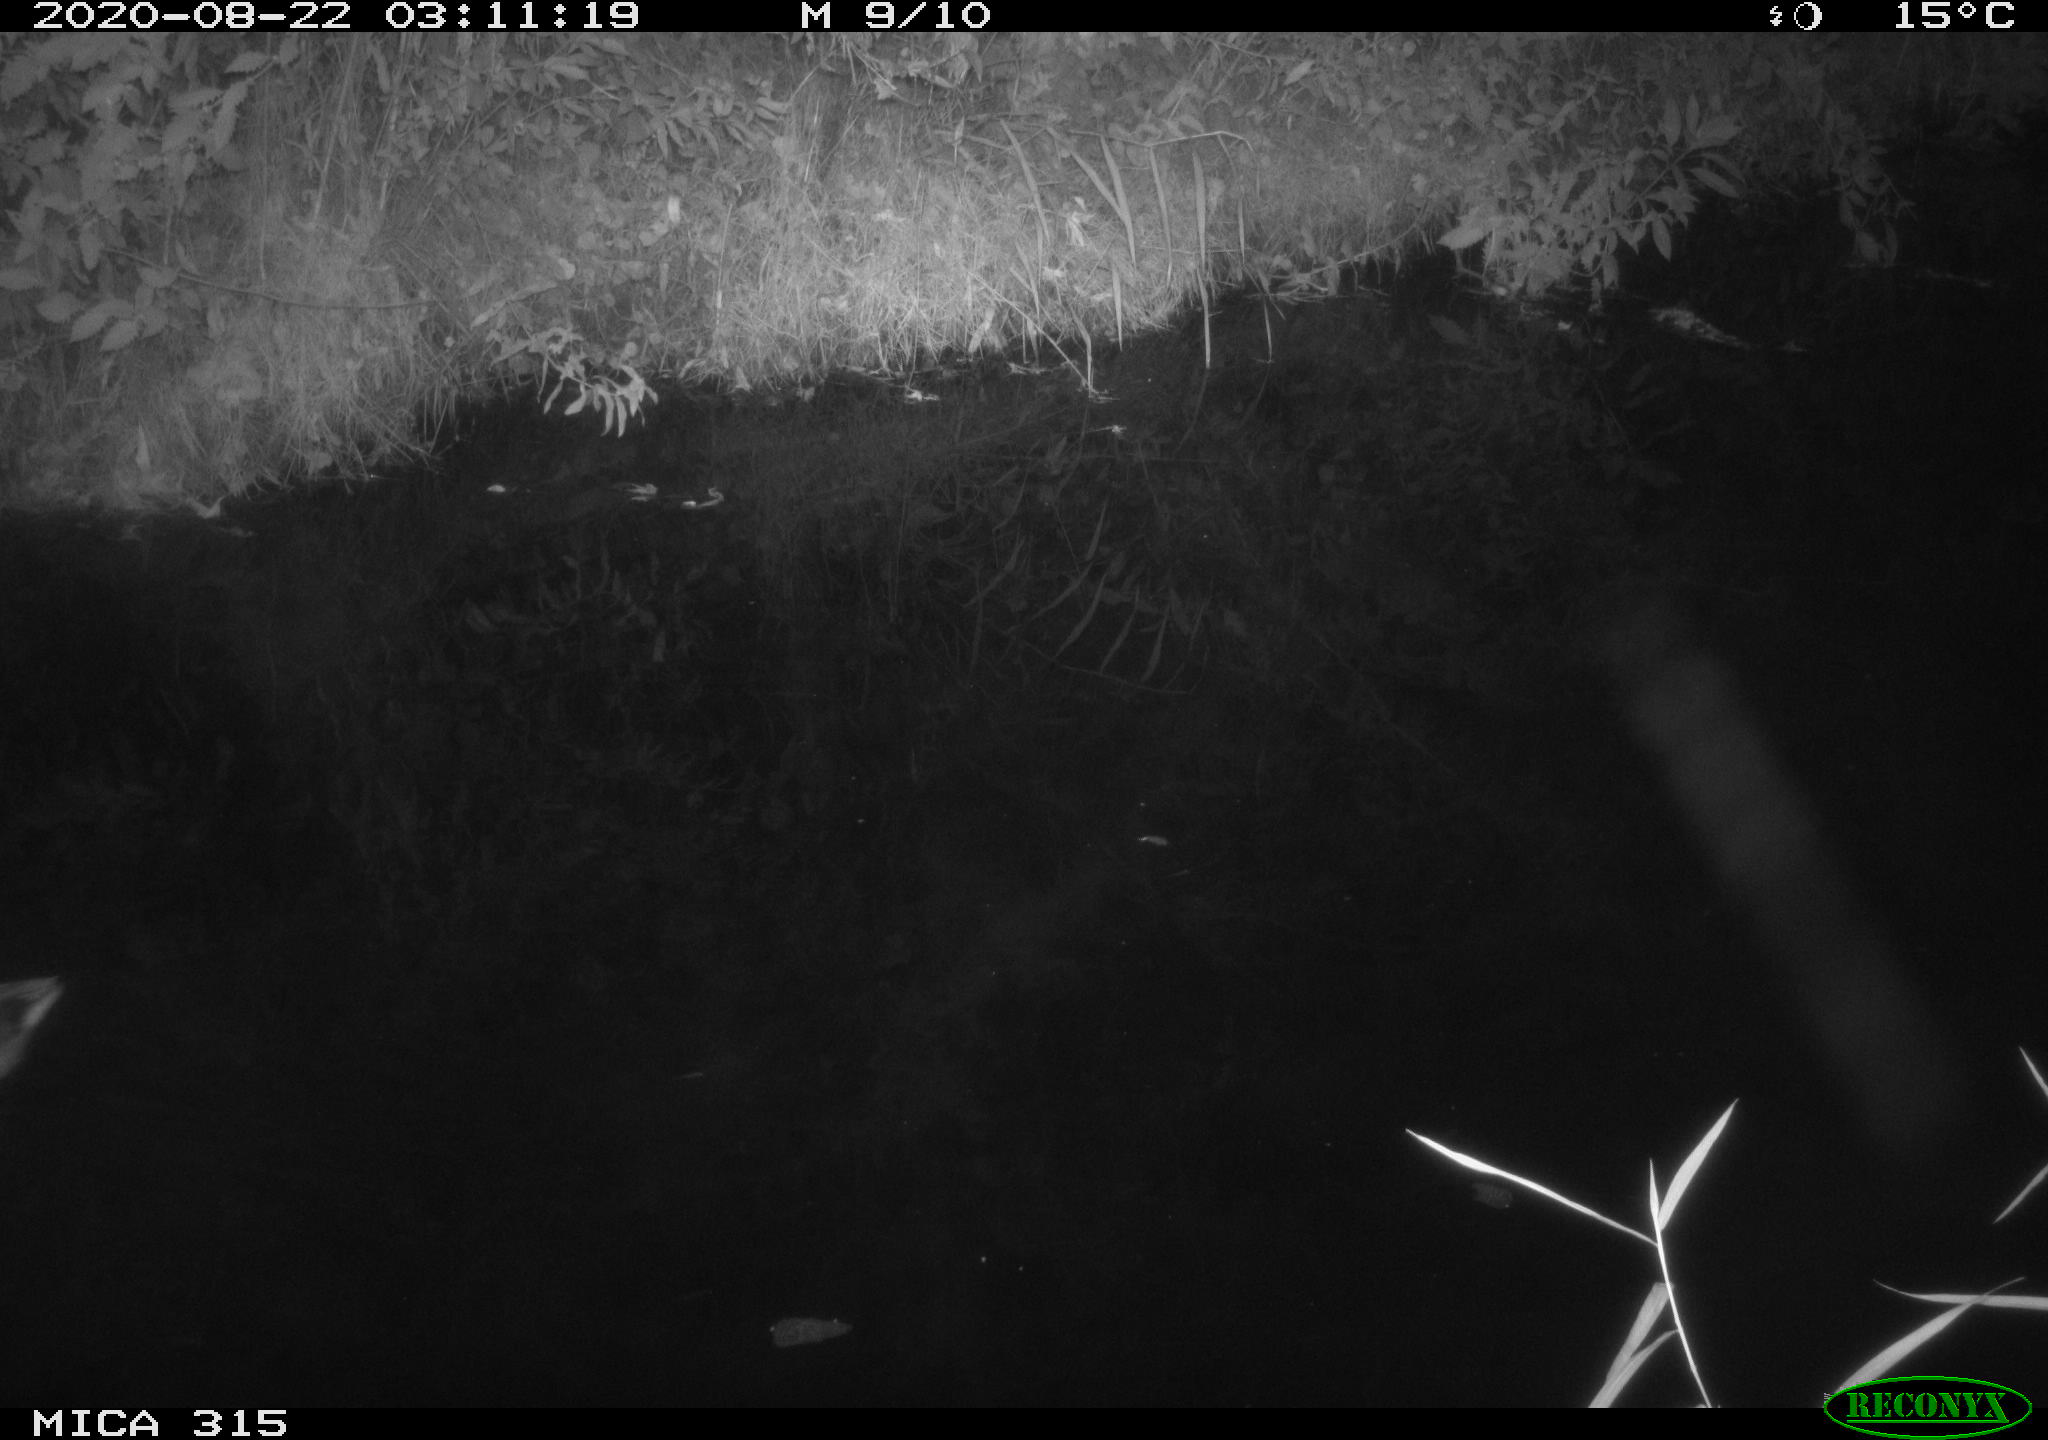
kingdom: Animalia
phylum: Chordata
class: Aves
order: Anseriformes
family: Anatidae
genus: Anas
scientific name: Anas platyrhynchos
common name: Mallard
